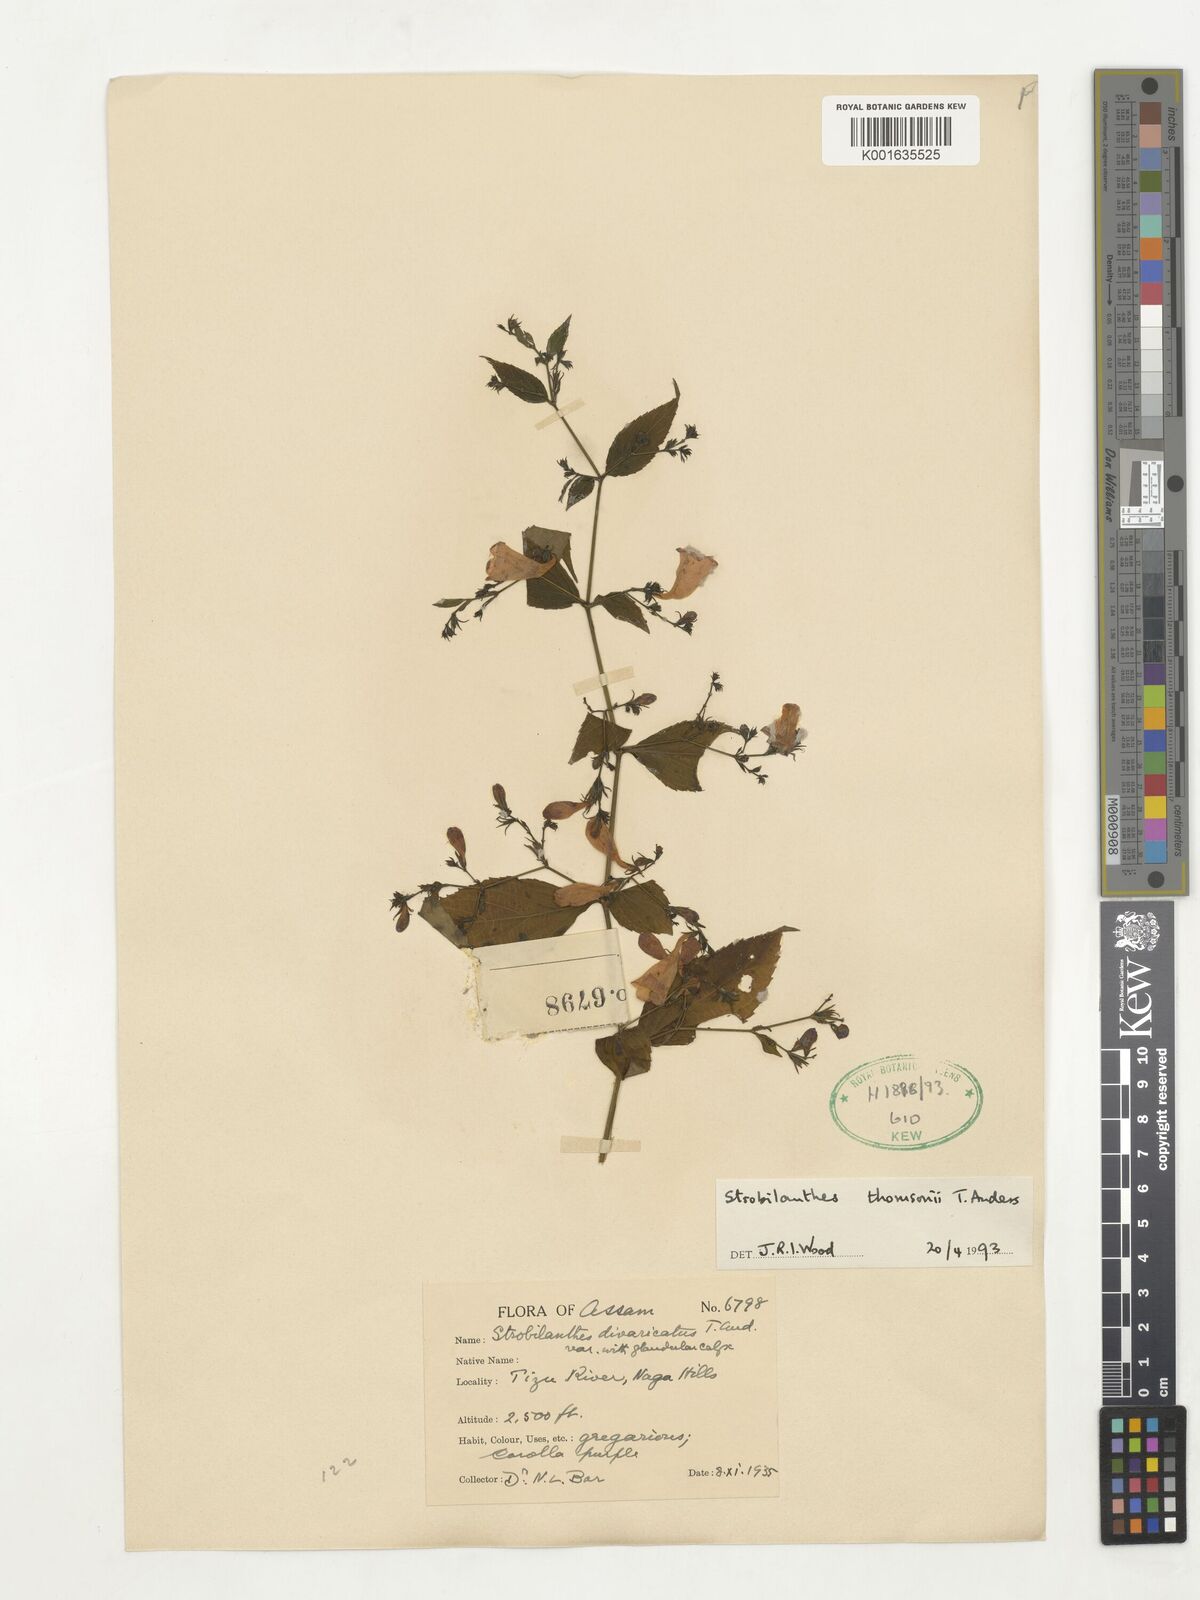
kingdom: Plantae
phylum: Tracheophyta
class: Magnoliopsida
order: Lamiales
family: Acanthaceae
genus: Strobilanthes
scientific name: Strobilanthes thomsonii
